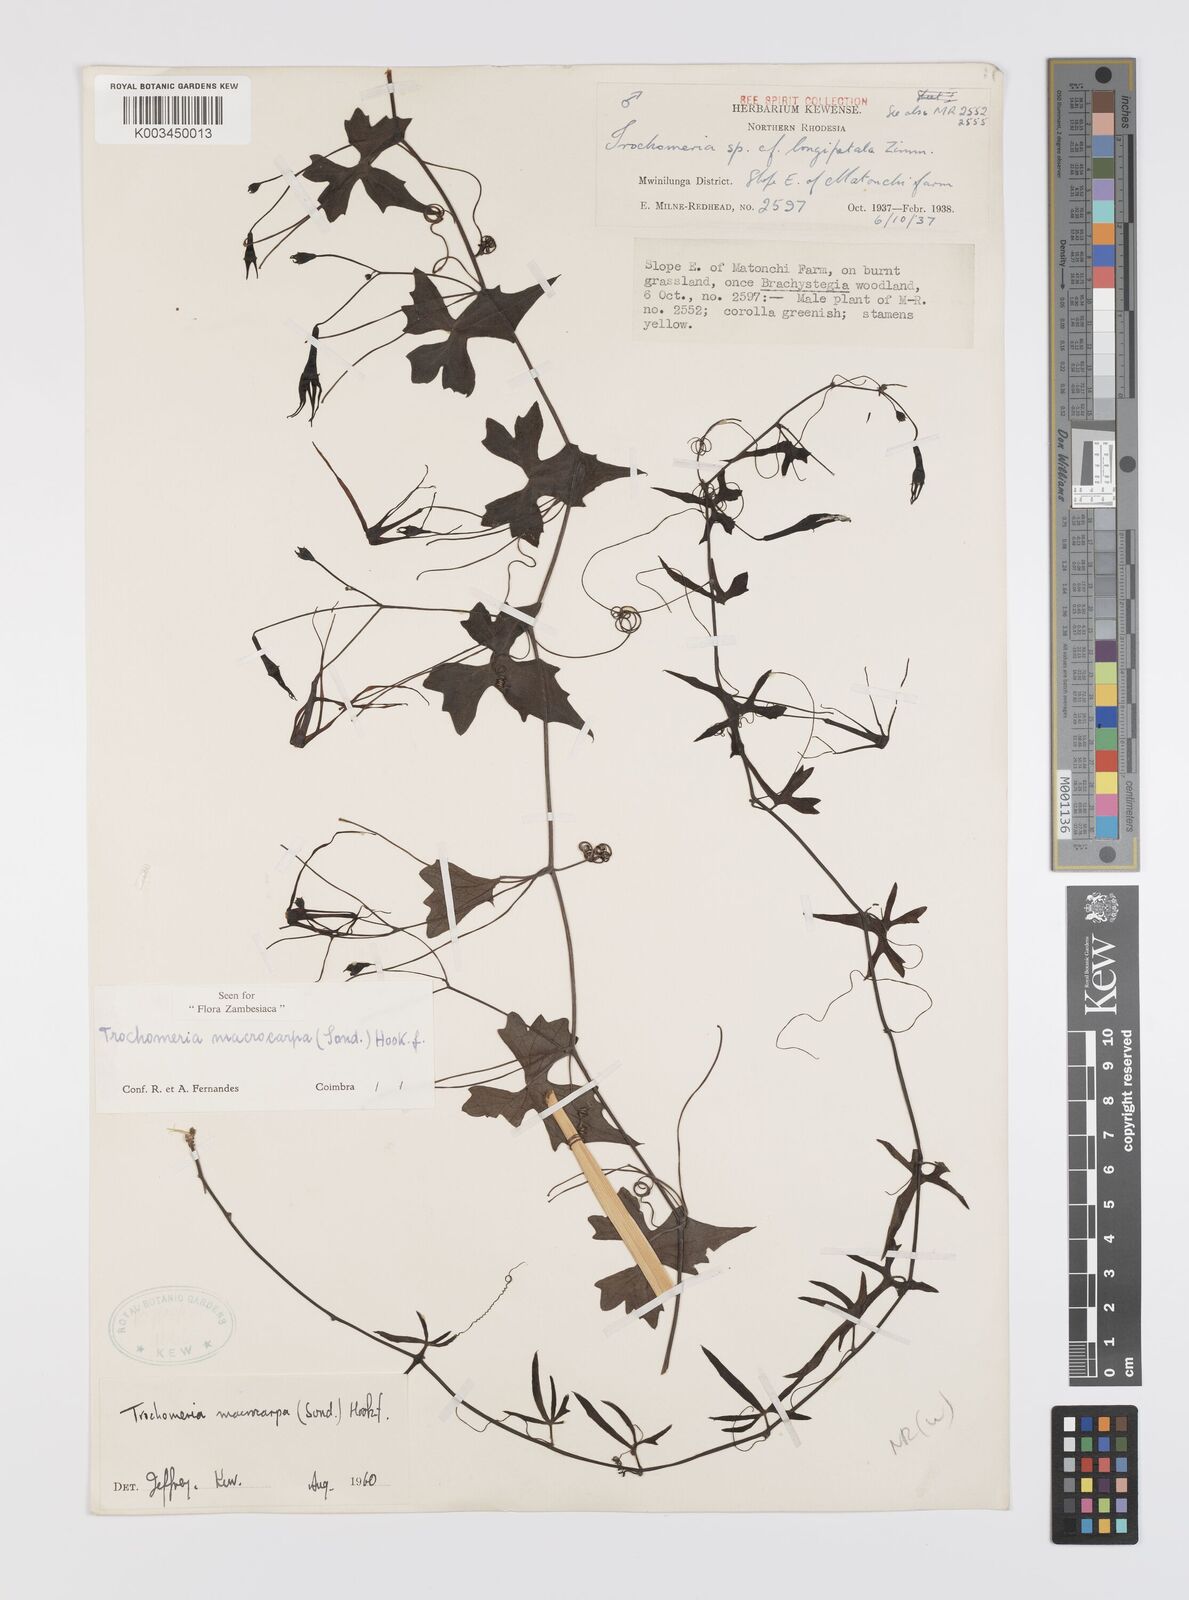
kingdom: Plantae
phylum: Tracheophyta
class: Magnoliopsida
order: Cucurbitales
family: Cucurbitaceae
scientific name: Cucurbitaceae
